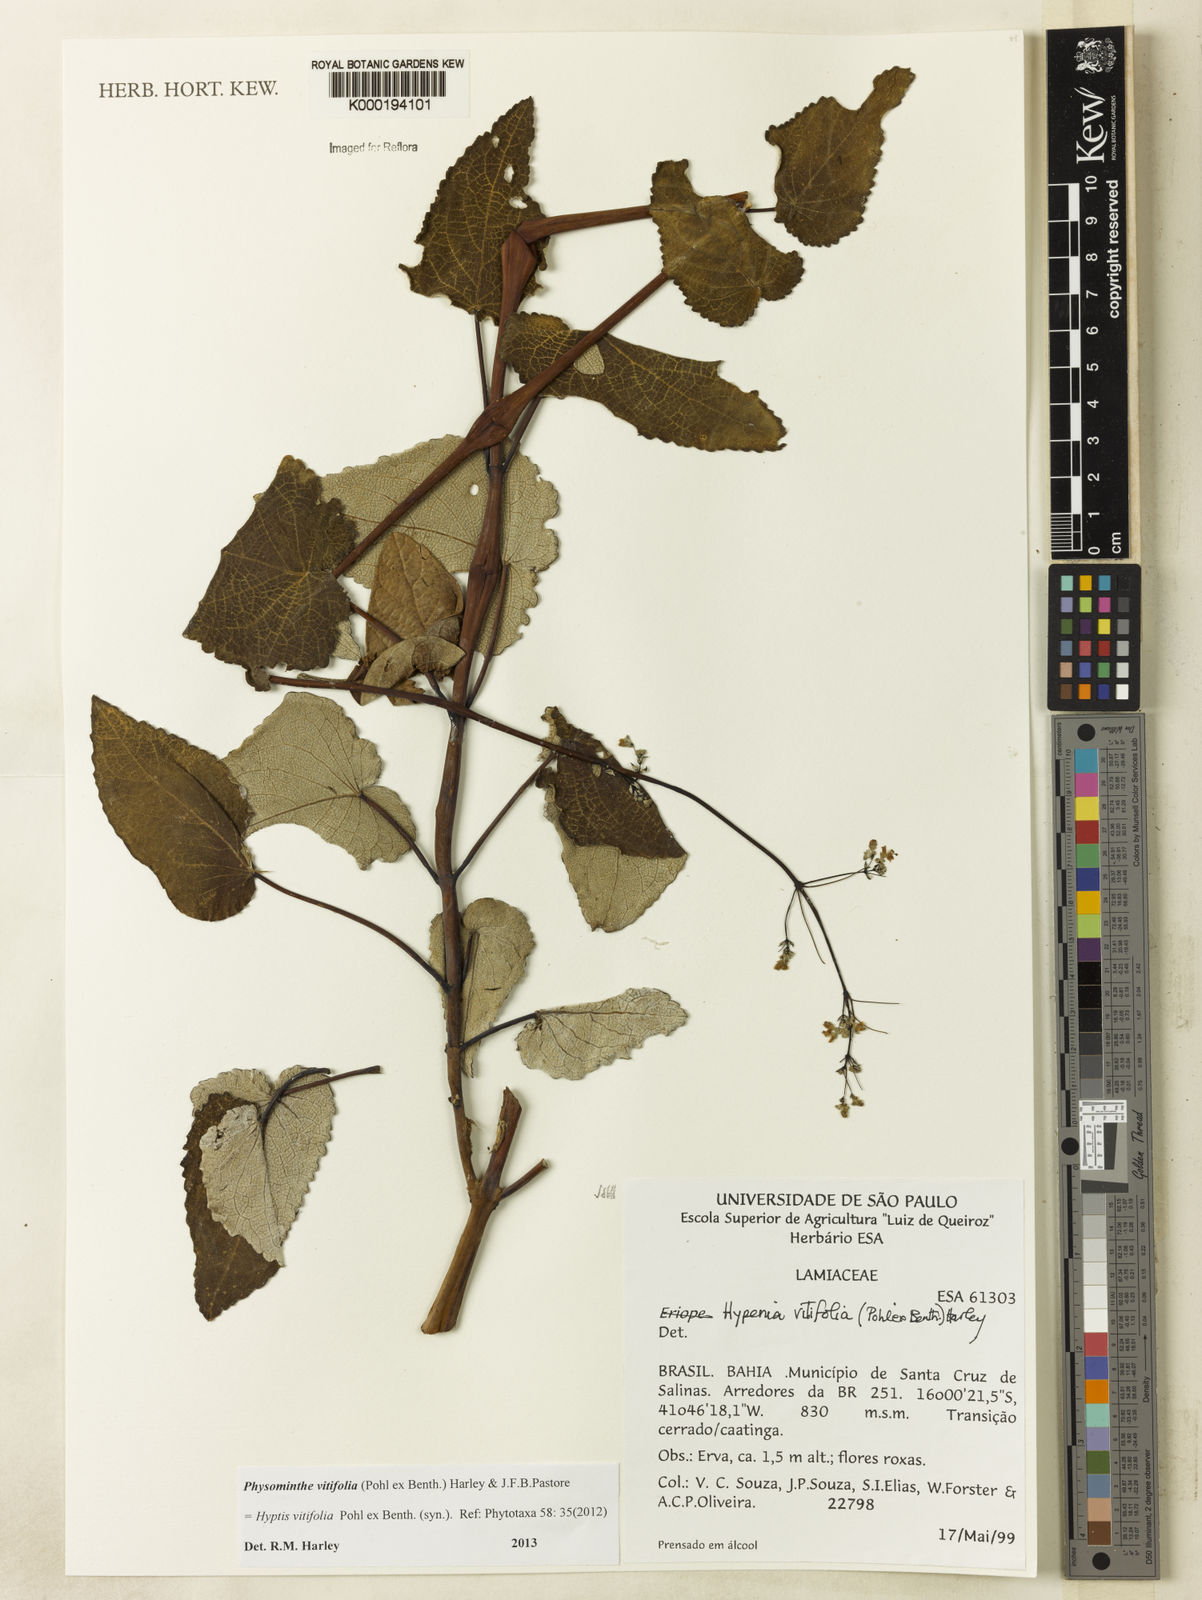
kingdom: Plantae
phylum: Tracheophyta
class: Magnoliopsida
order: Lamiales
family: Lamiaceae
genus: Physominthe
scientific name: Physominthe vitifolia
